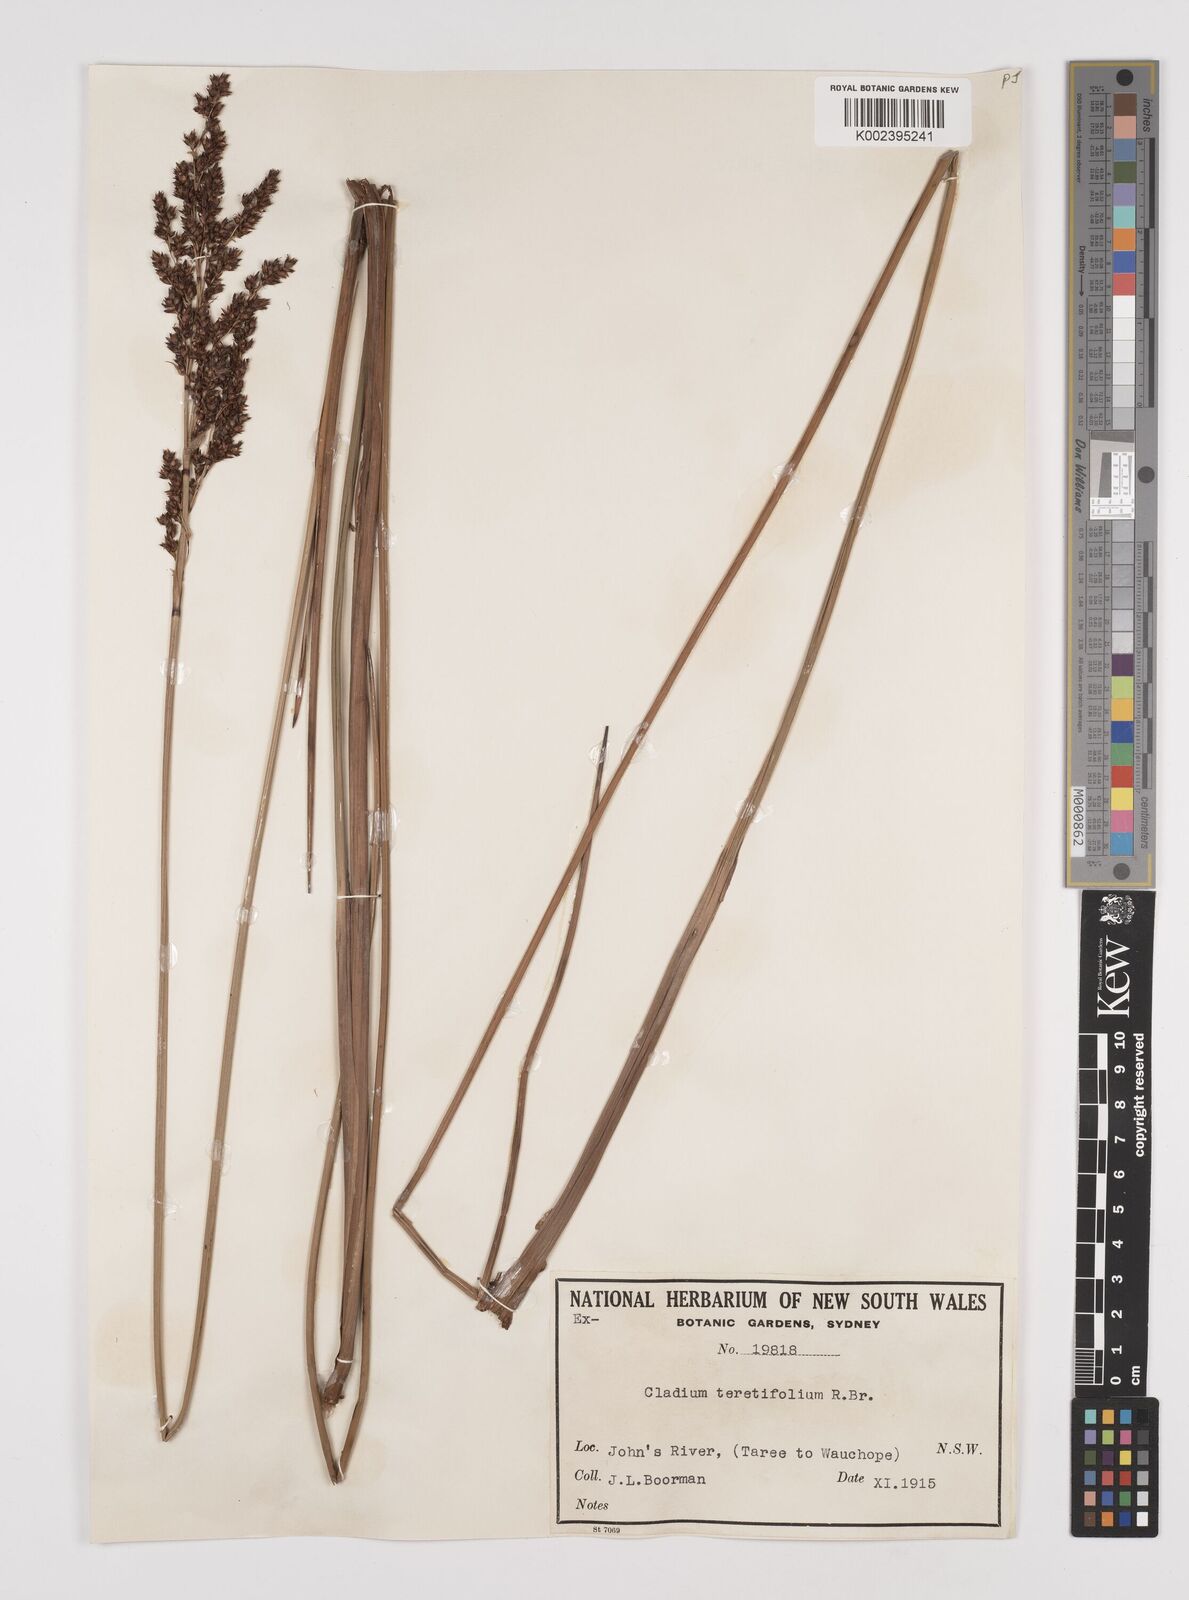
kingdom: Plantae
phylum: Tracheophyta
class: Liliopsida
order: Poales
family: Cyperaceae
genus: Machaerina
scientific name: Machaerina teretifolia
